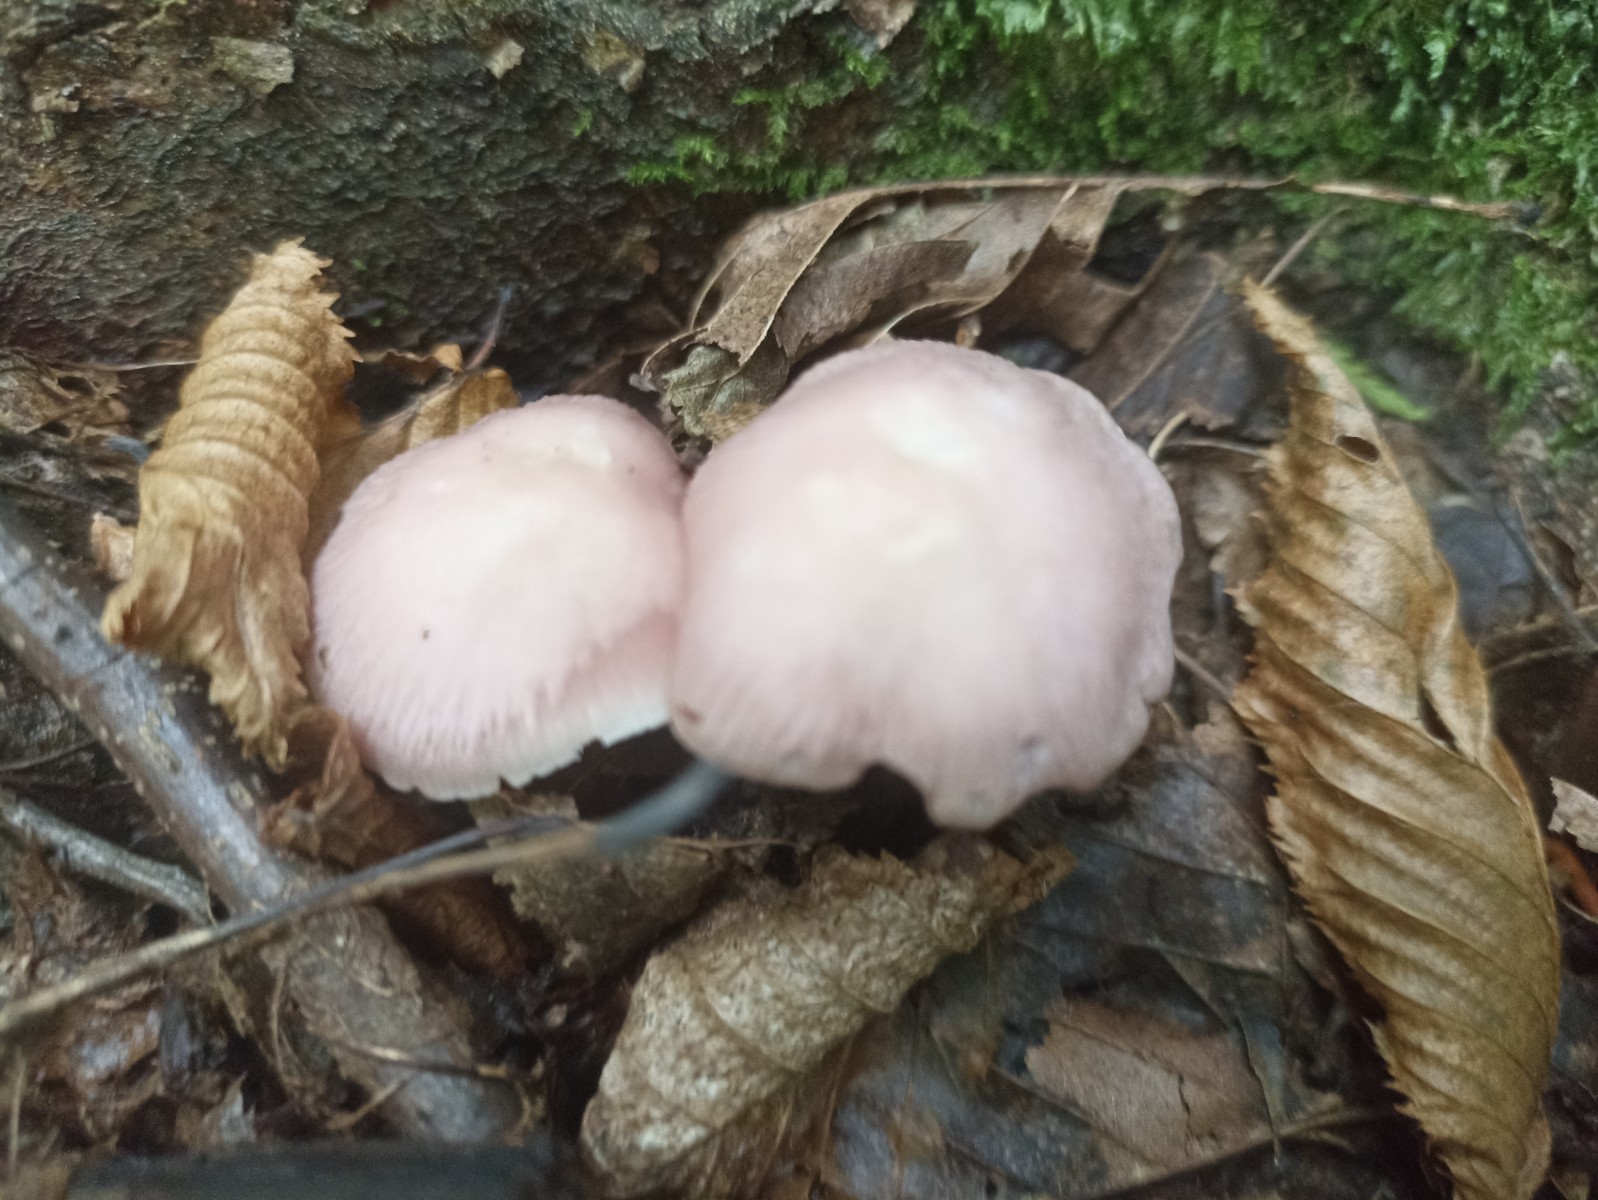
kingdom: Fungi
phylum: Basidiomycota
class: Agaricomycetes
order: Agaricales
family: Mycenaceae
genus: Mycena
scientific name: Mycena rosea
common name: rosa huesvamp
